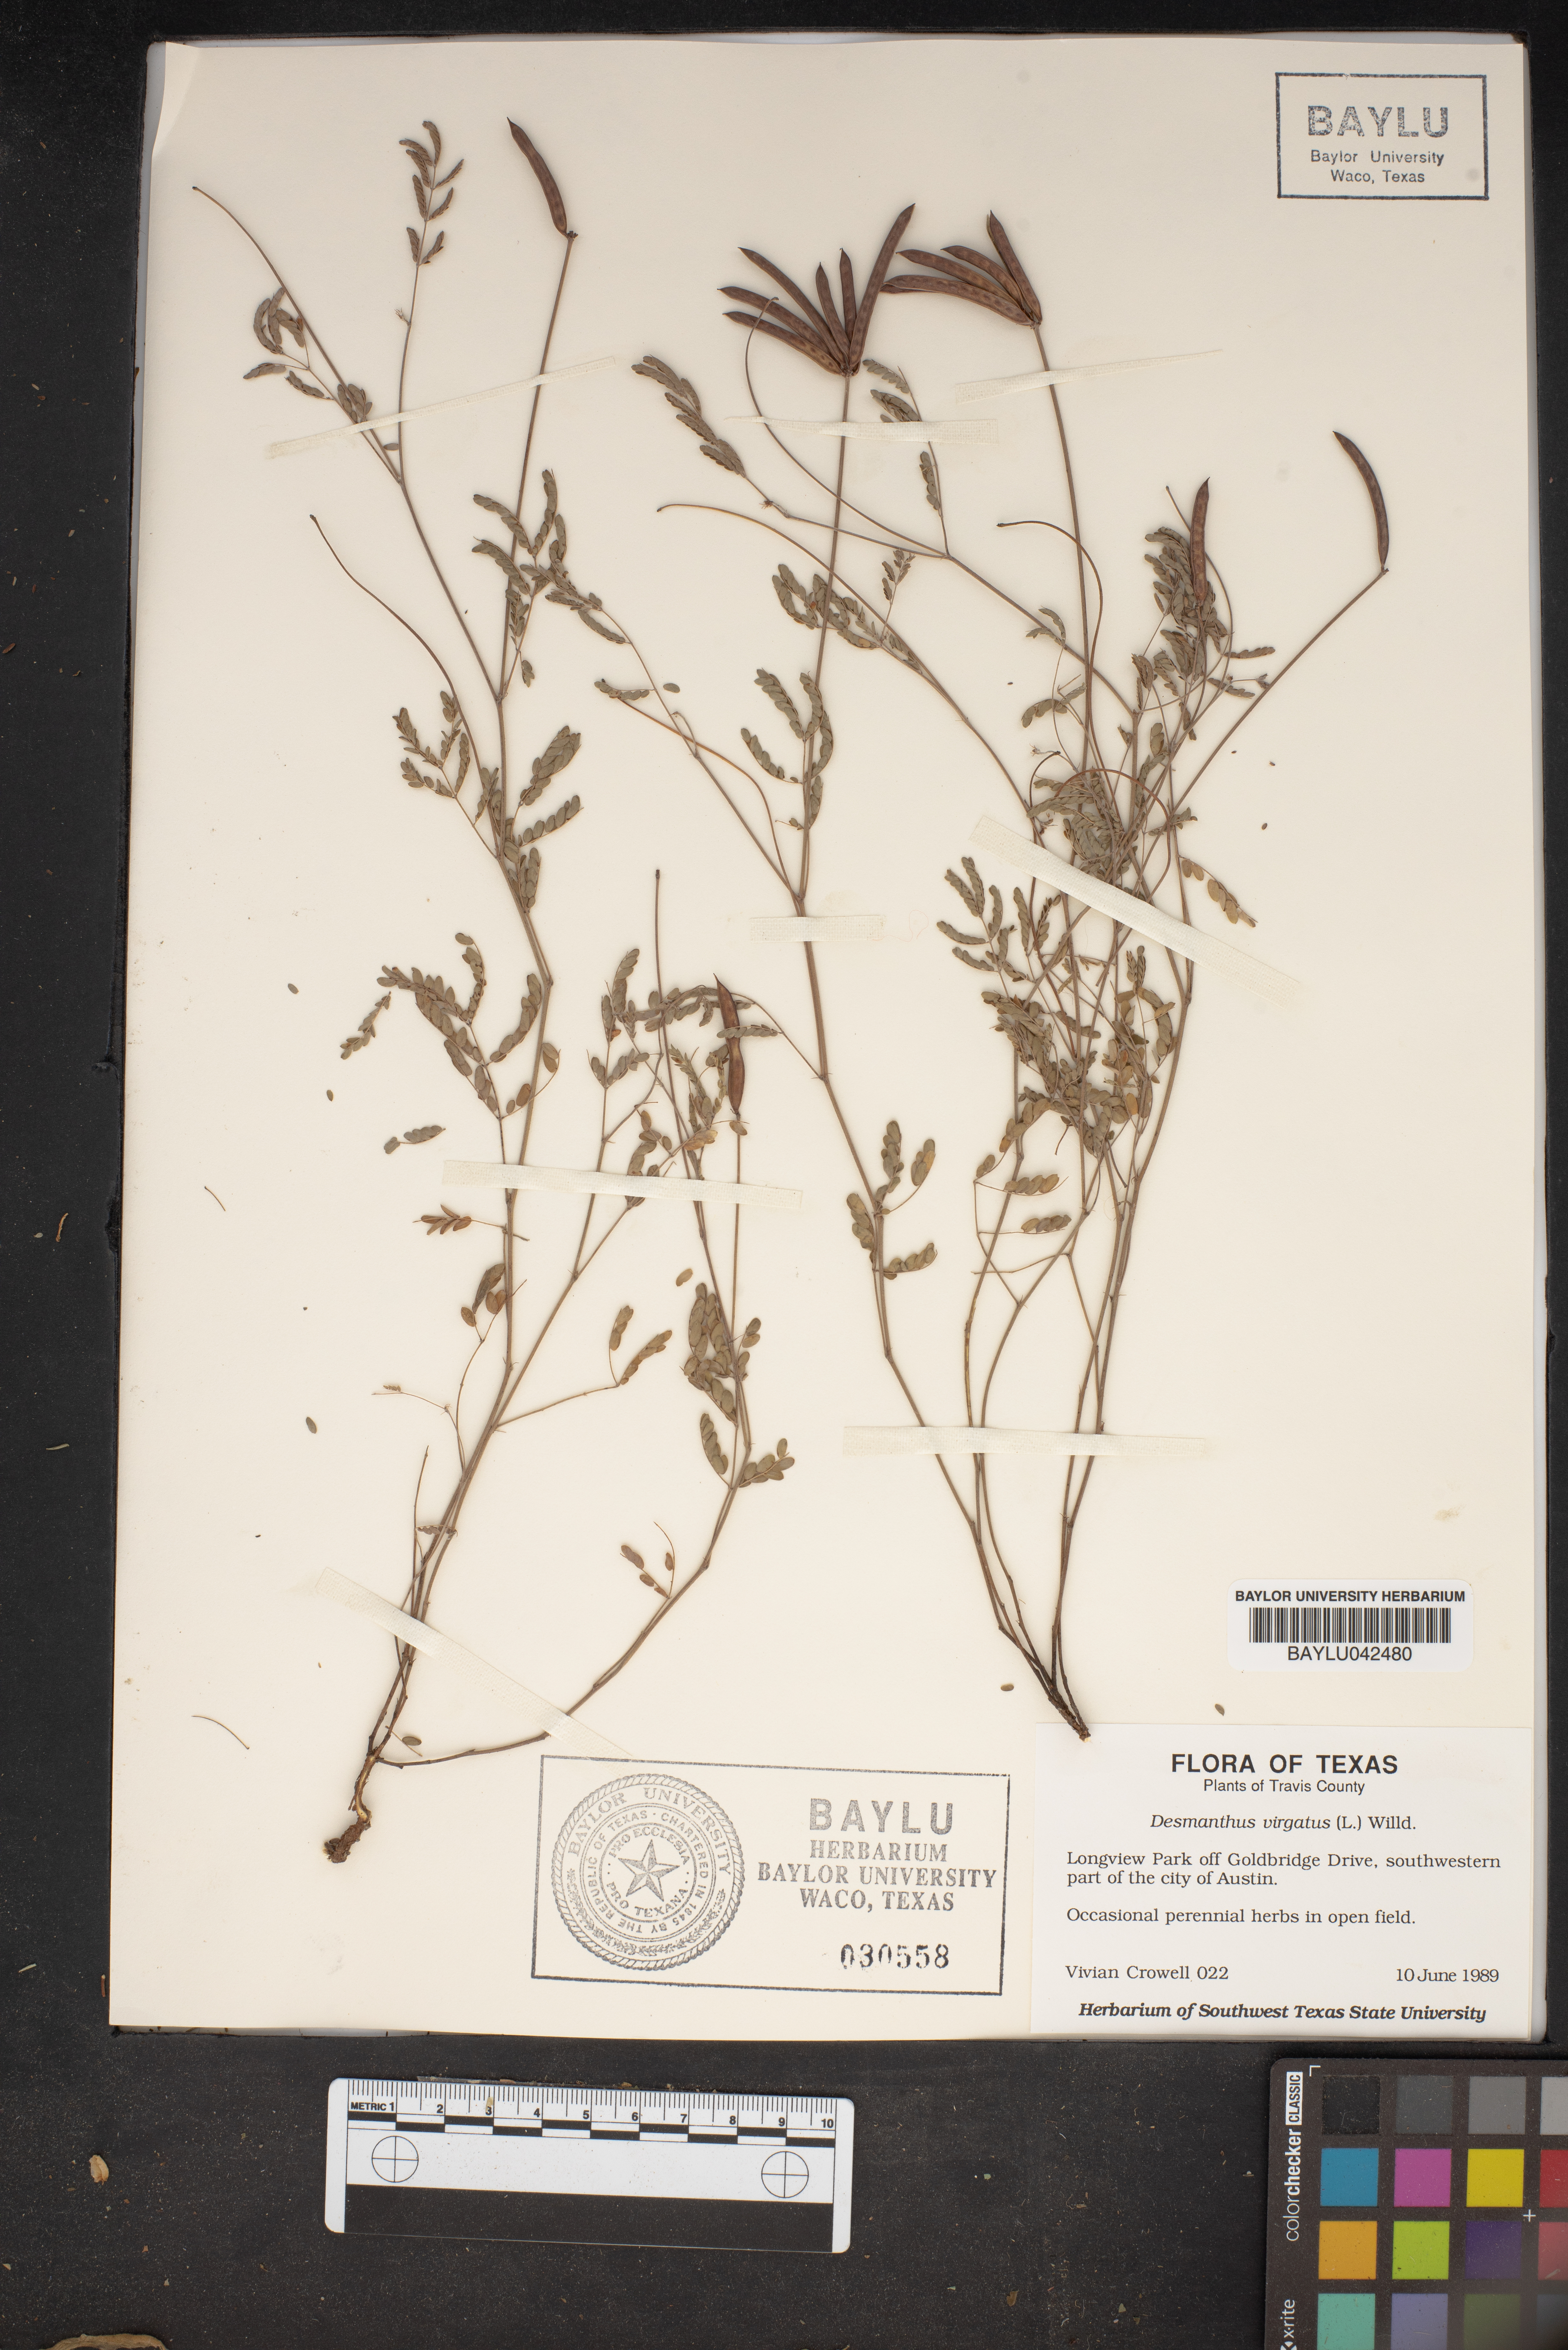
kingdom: Plantae
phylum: Tracheophyta
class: Magnoliopsida
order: Fabales
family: Fabaceae
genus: Desmanthus
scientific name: Desmanthus virgatus
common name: Wild tantan
